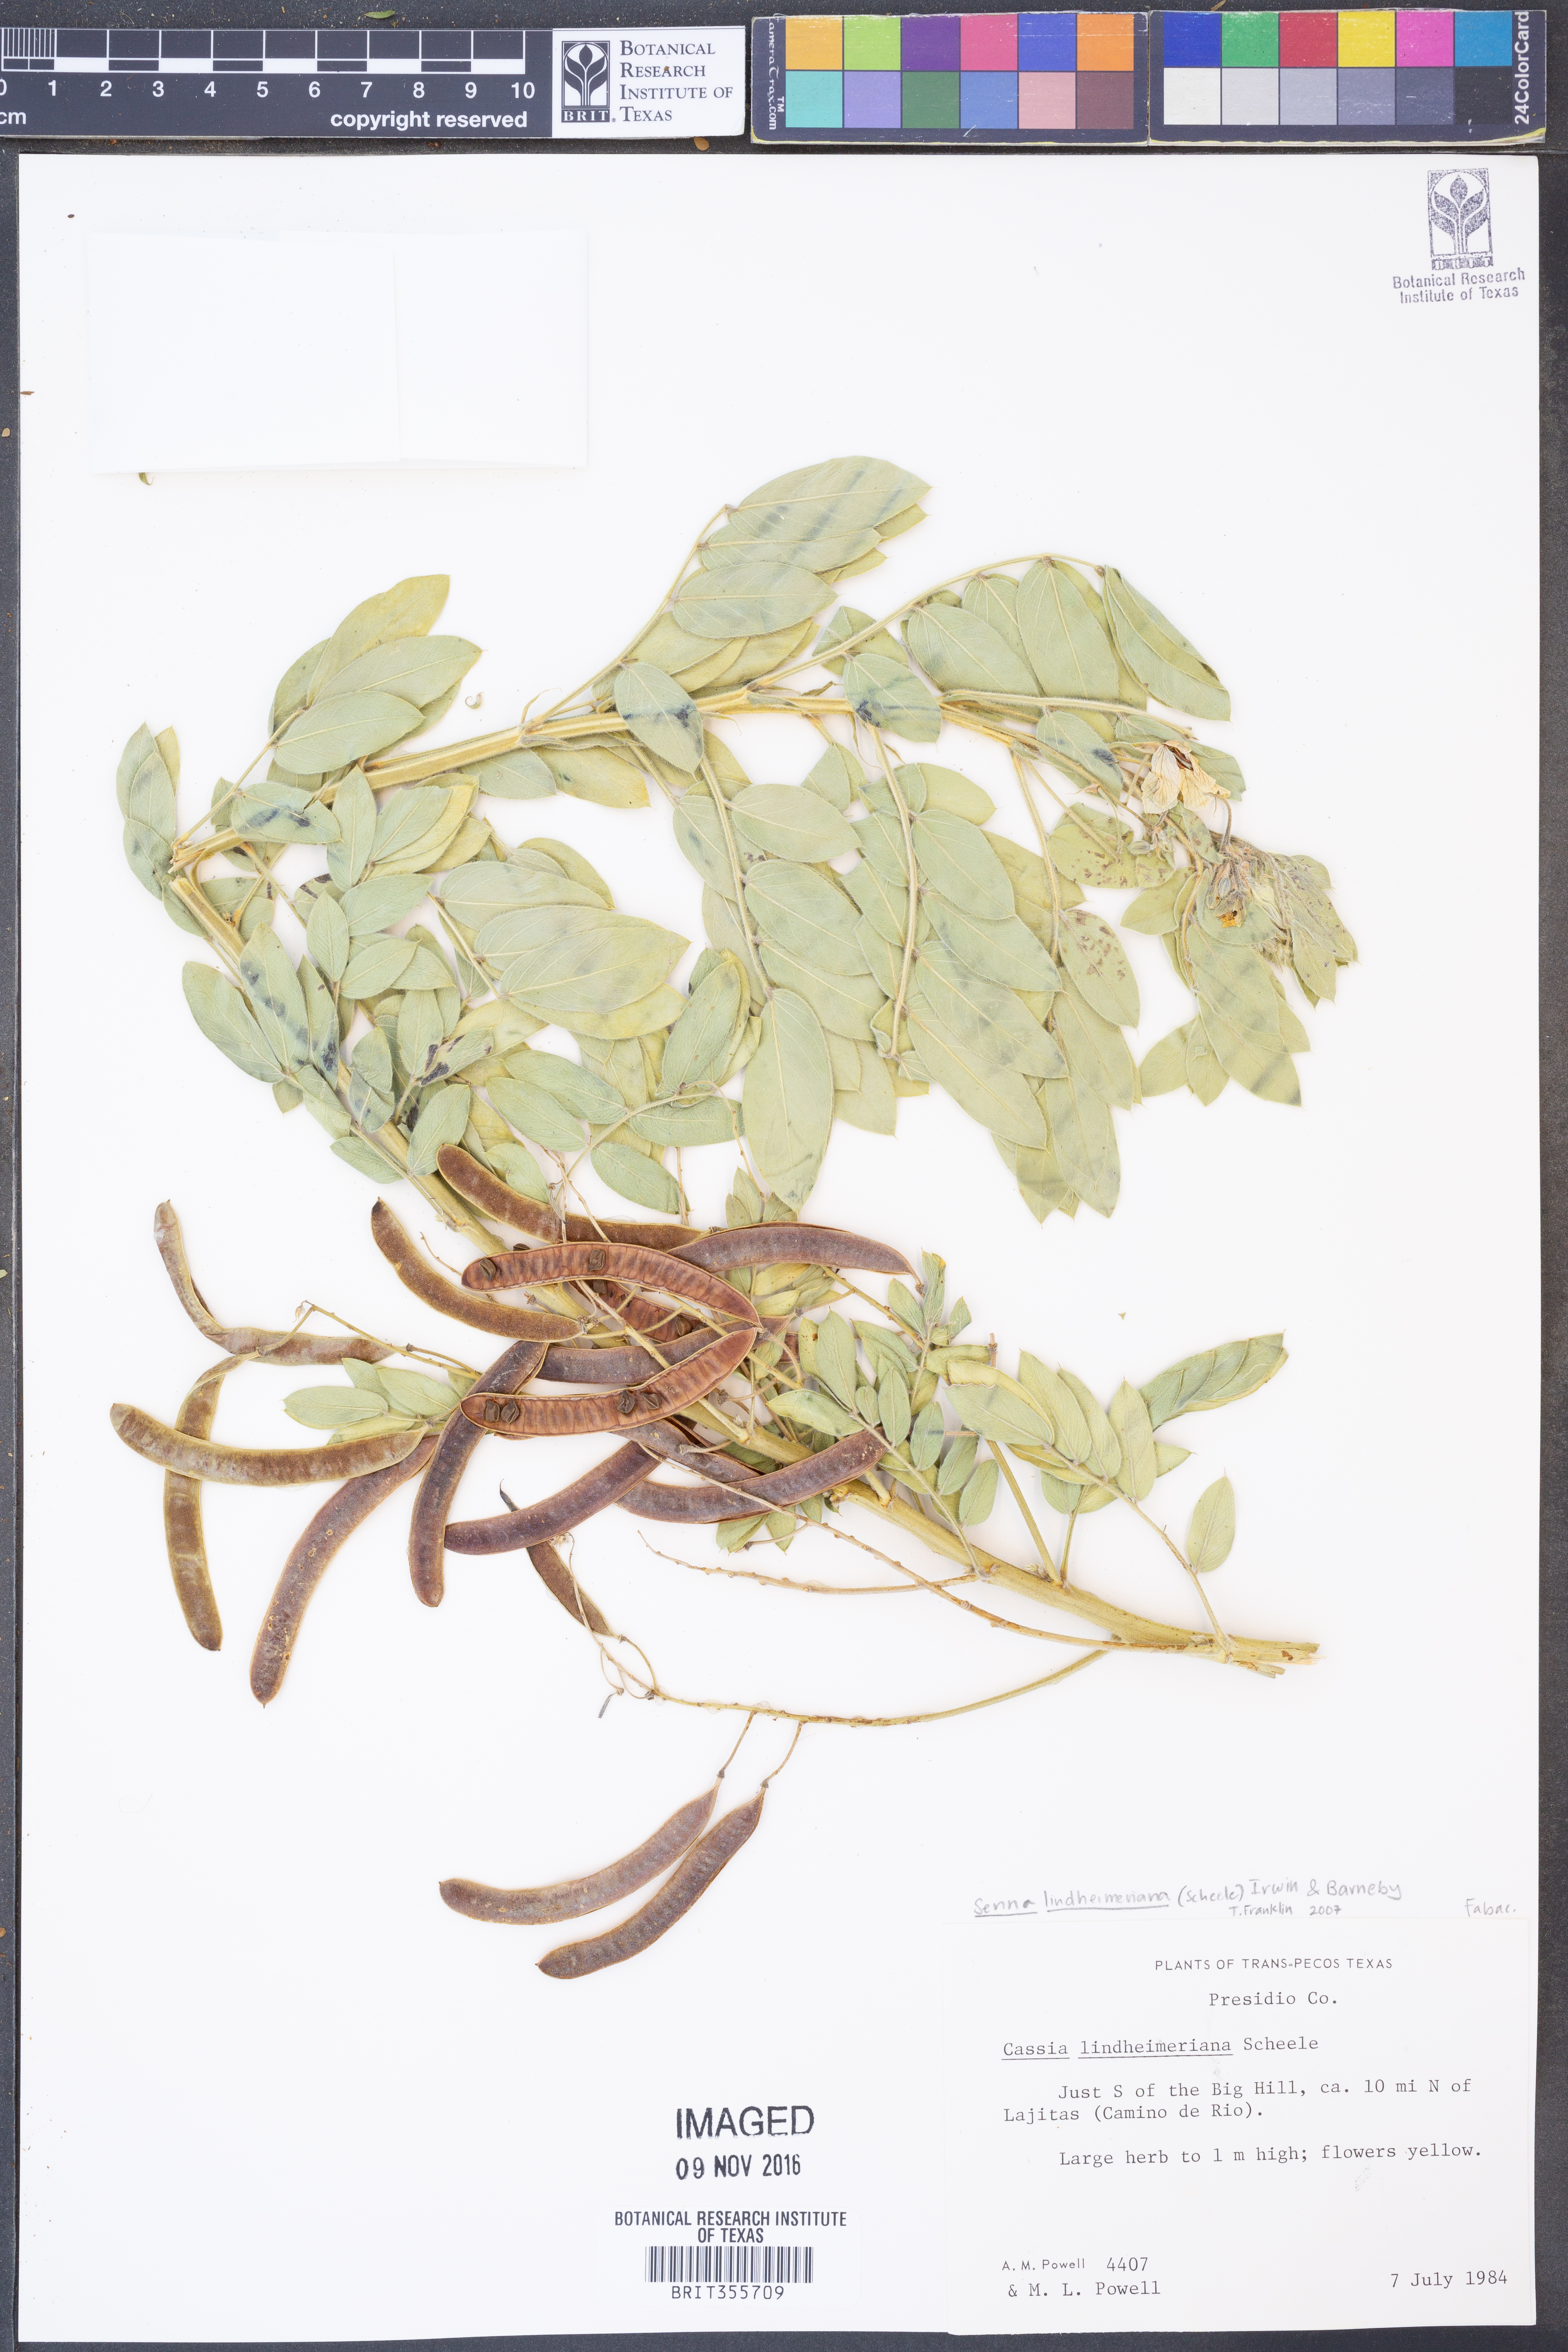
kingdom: Plantae
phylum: Tracheophyta
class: Magnoliopsida
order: Fabales
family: Fabaceae
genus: Senna
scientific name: Senna lindheimeriana
